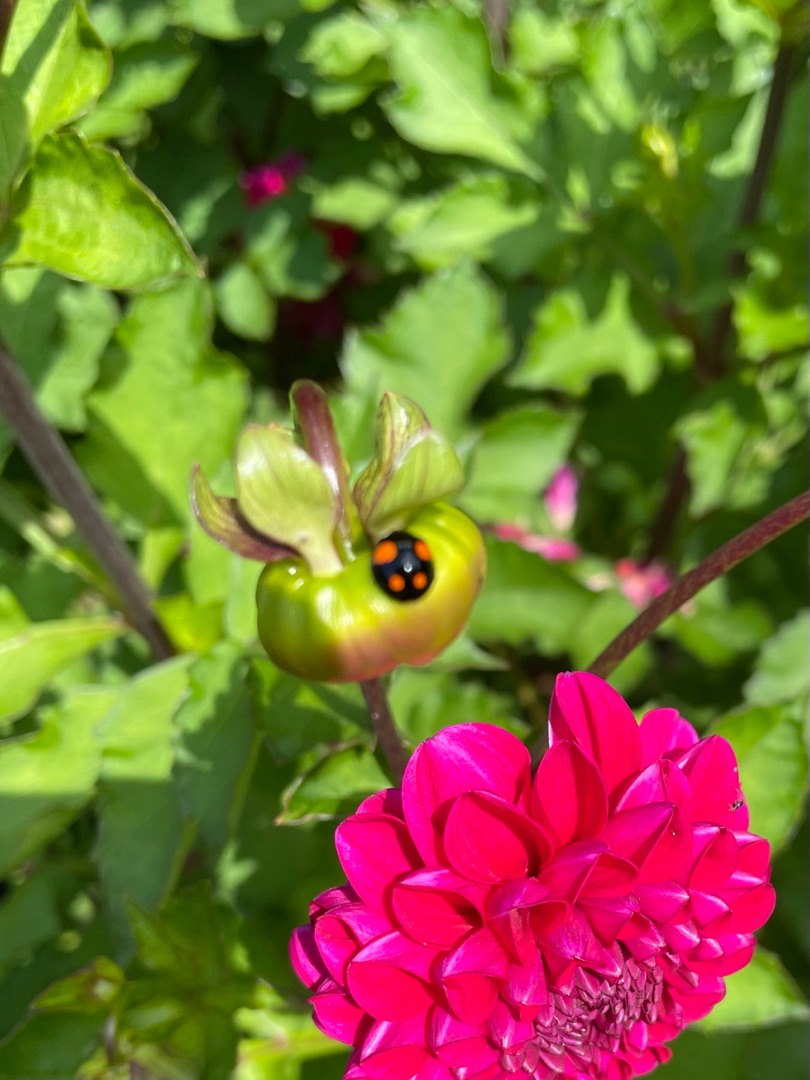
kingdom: Animalia
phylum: Arthropoda
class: Insecta
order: Coleoptera
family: Coccinellidae
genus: Harmonia
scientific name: Harmonia axyridis
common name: Harlekinmariehøne
